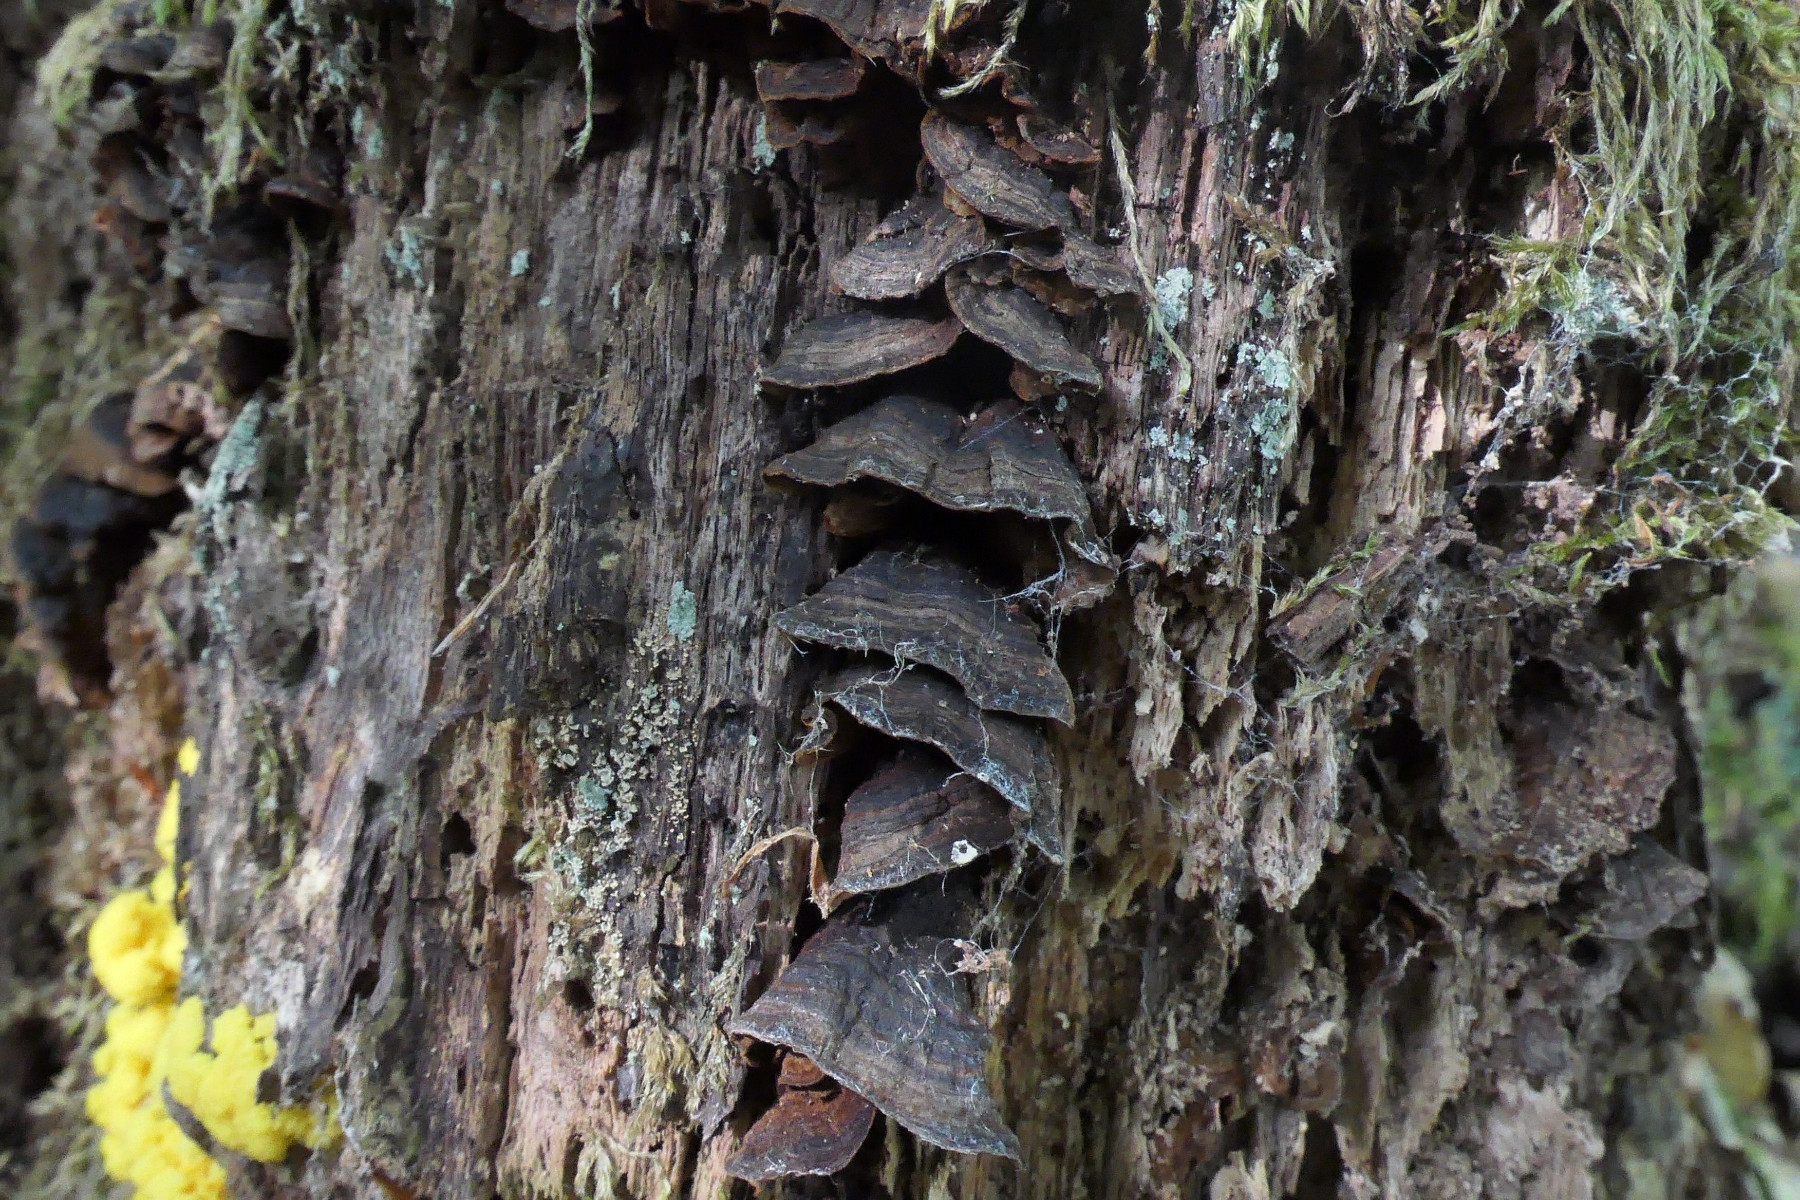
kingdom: Fungi
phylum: Basidiomycota
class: Agaricomycetes
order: Hymenochaetales
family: Hymenochaetaceae
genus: Hymenochaete
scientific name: Hymenochaete rubiginosa
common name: stiv ruslædersvamp
